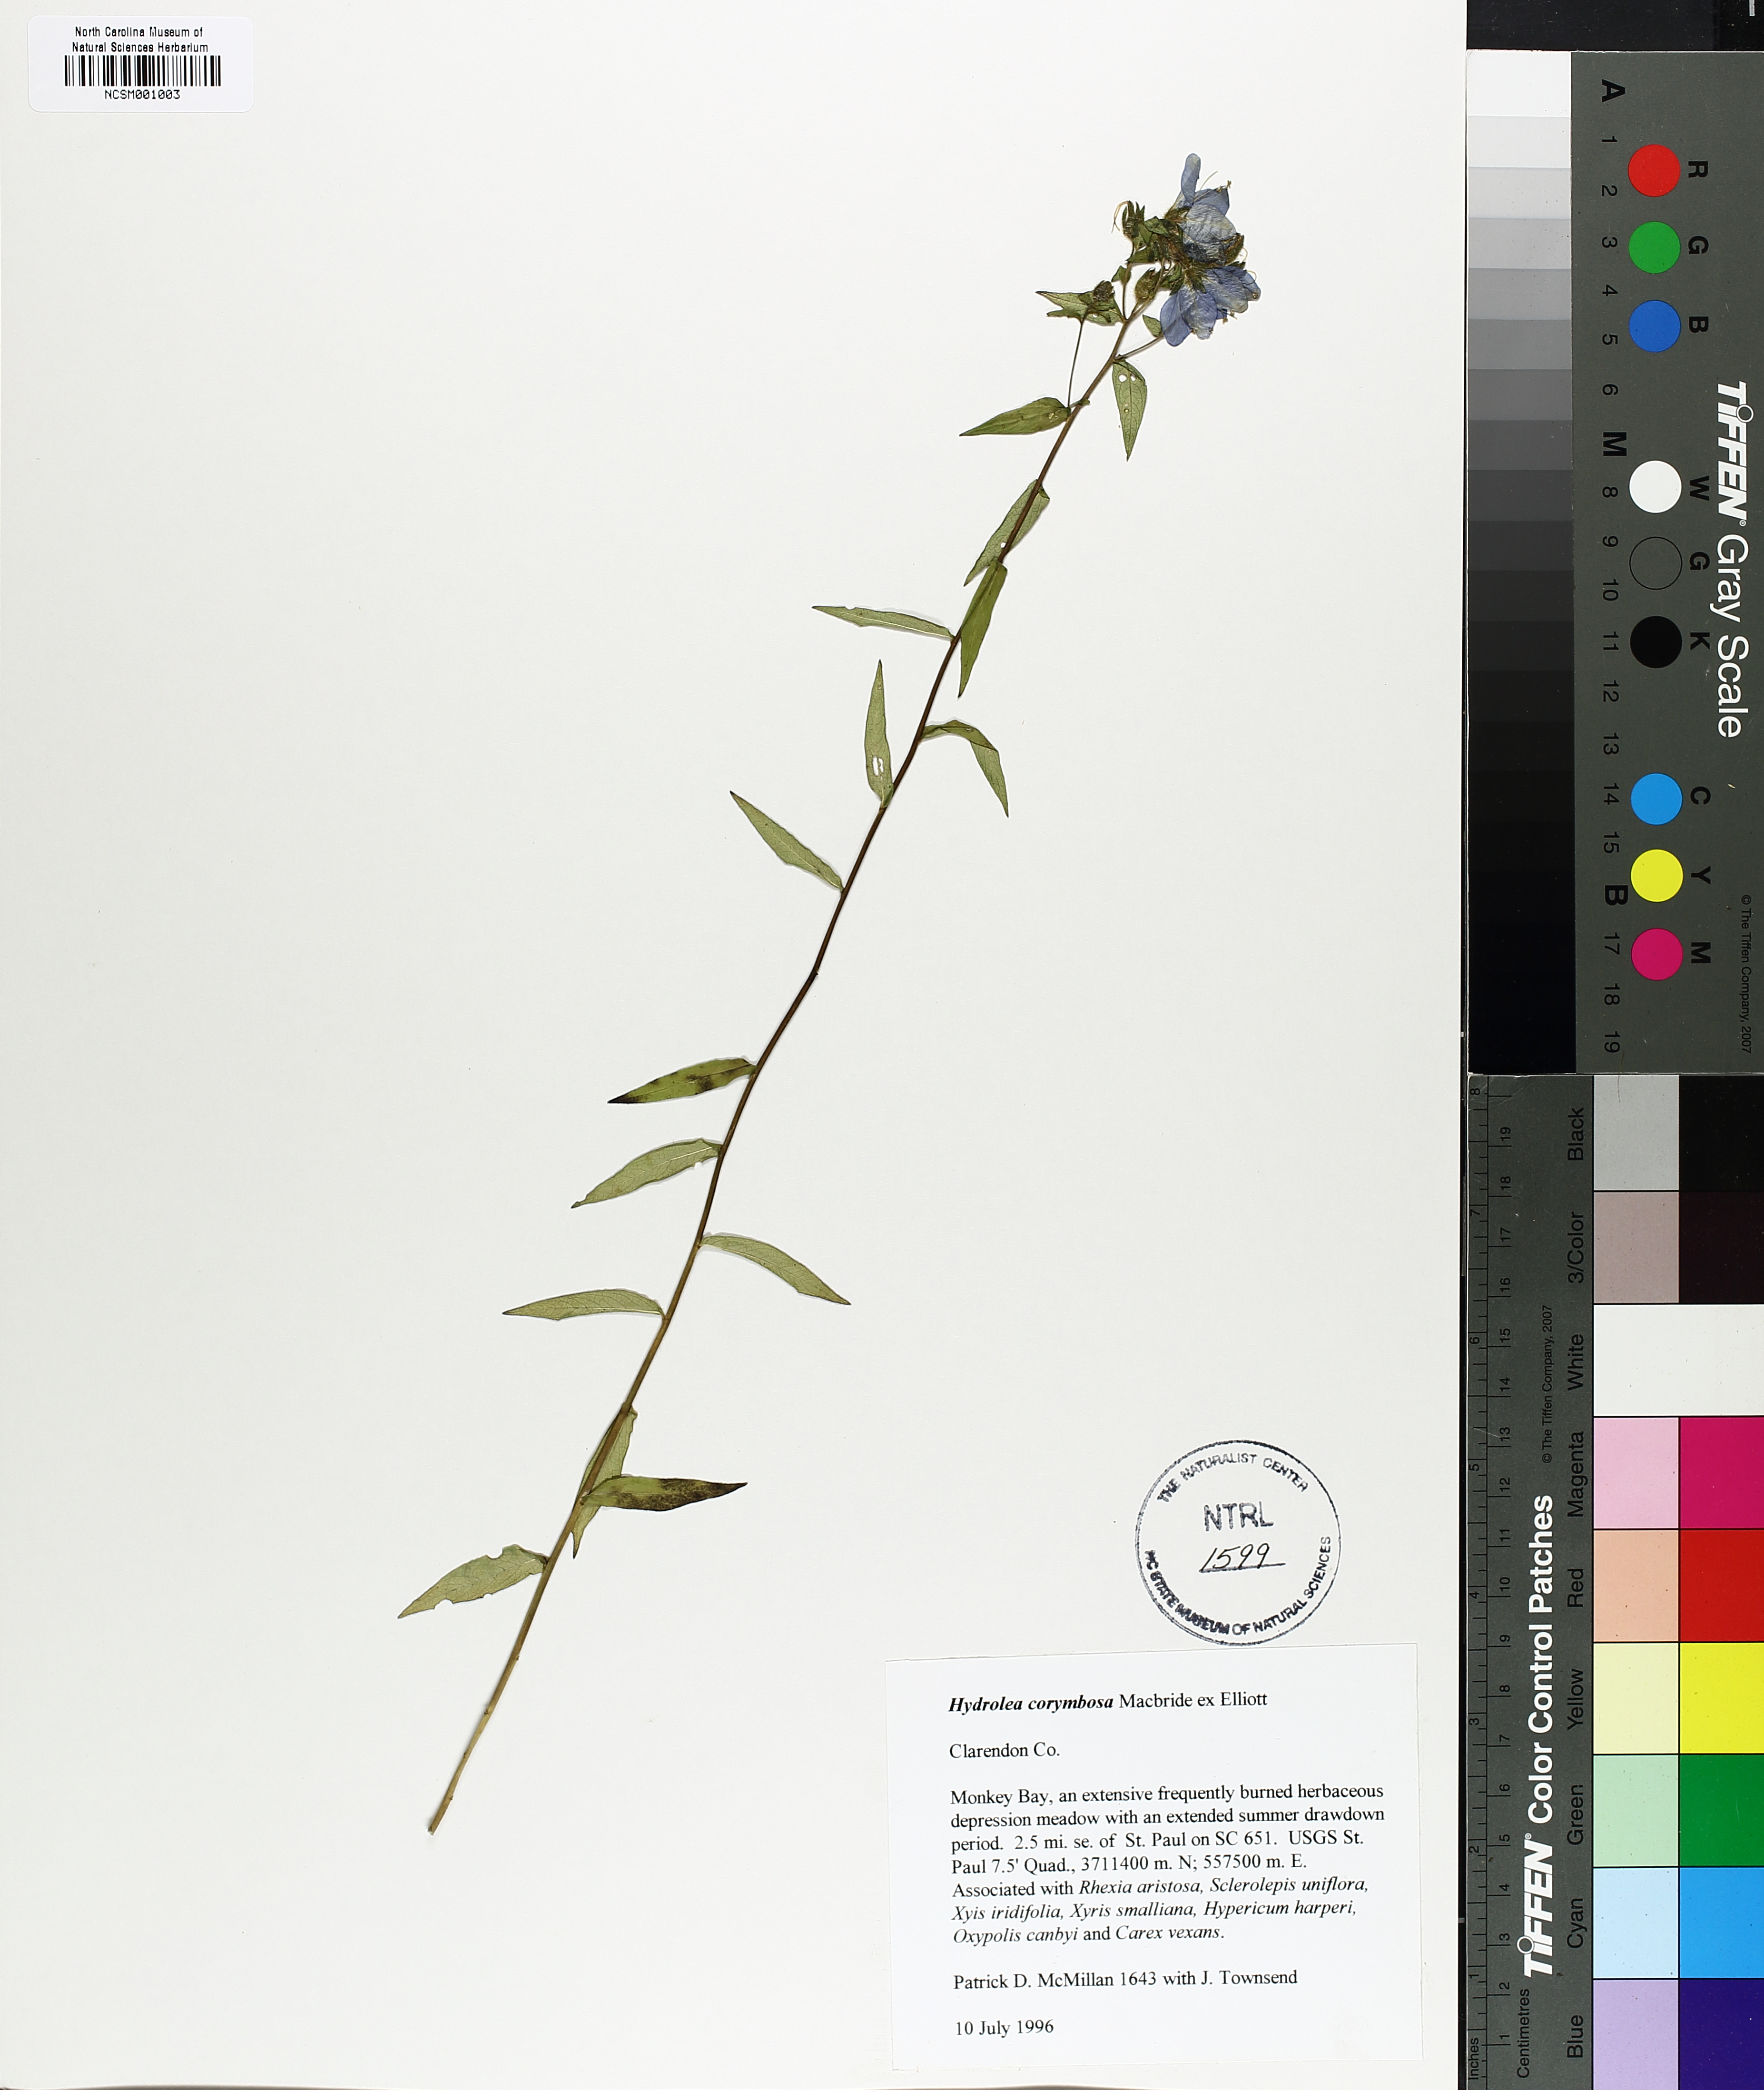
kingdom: Plantae
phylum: Tracheophyta
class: Magnoliopsida
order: Solanales
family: Hydroleaceae
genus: Hydrolea
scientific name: Hydrolea corymbosa
